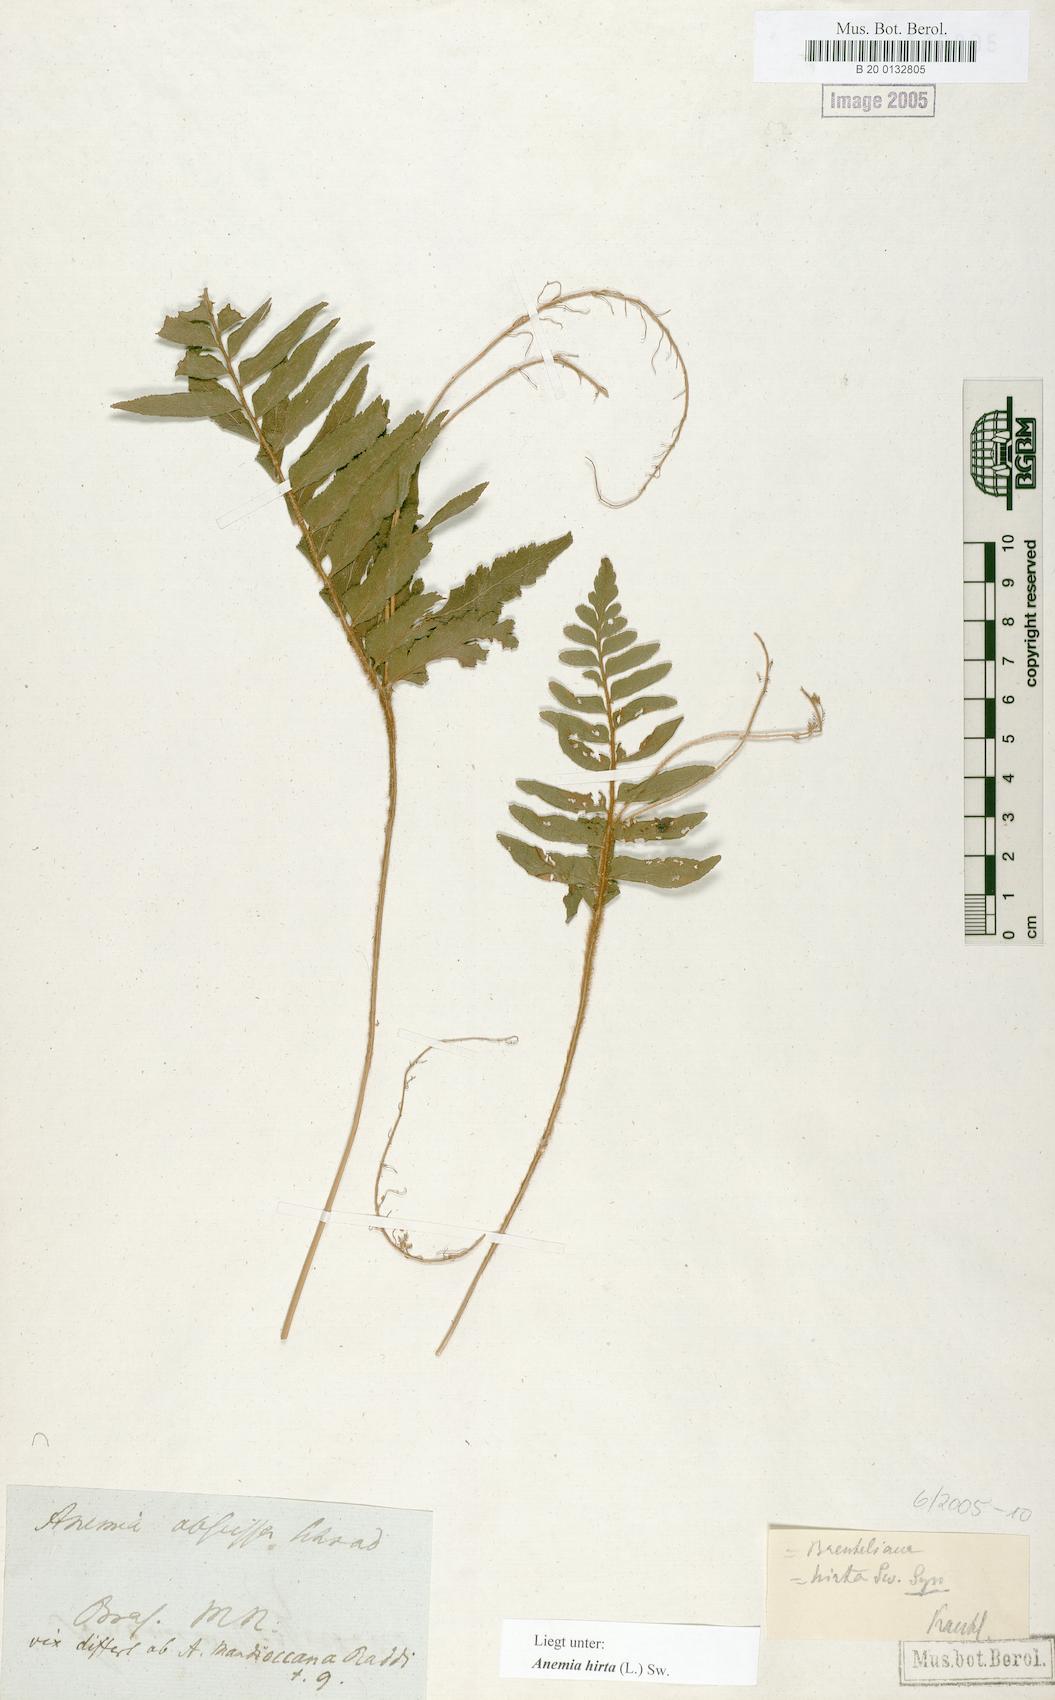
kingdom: Plantae
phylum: Tracheophyta
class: Polypodiopsida
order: Schizaeales
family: Anemiaceae
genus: Anemia
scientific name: Anemia hirta
